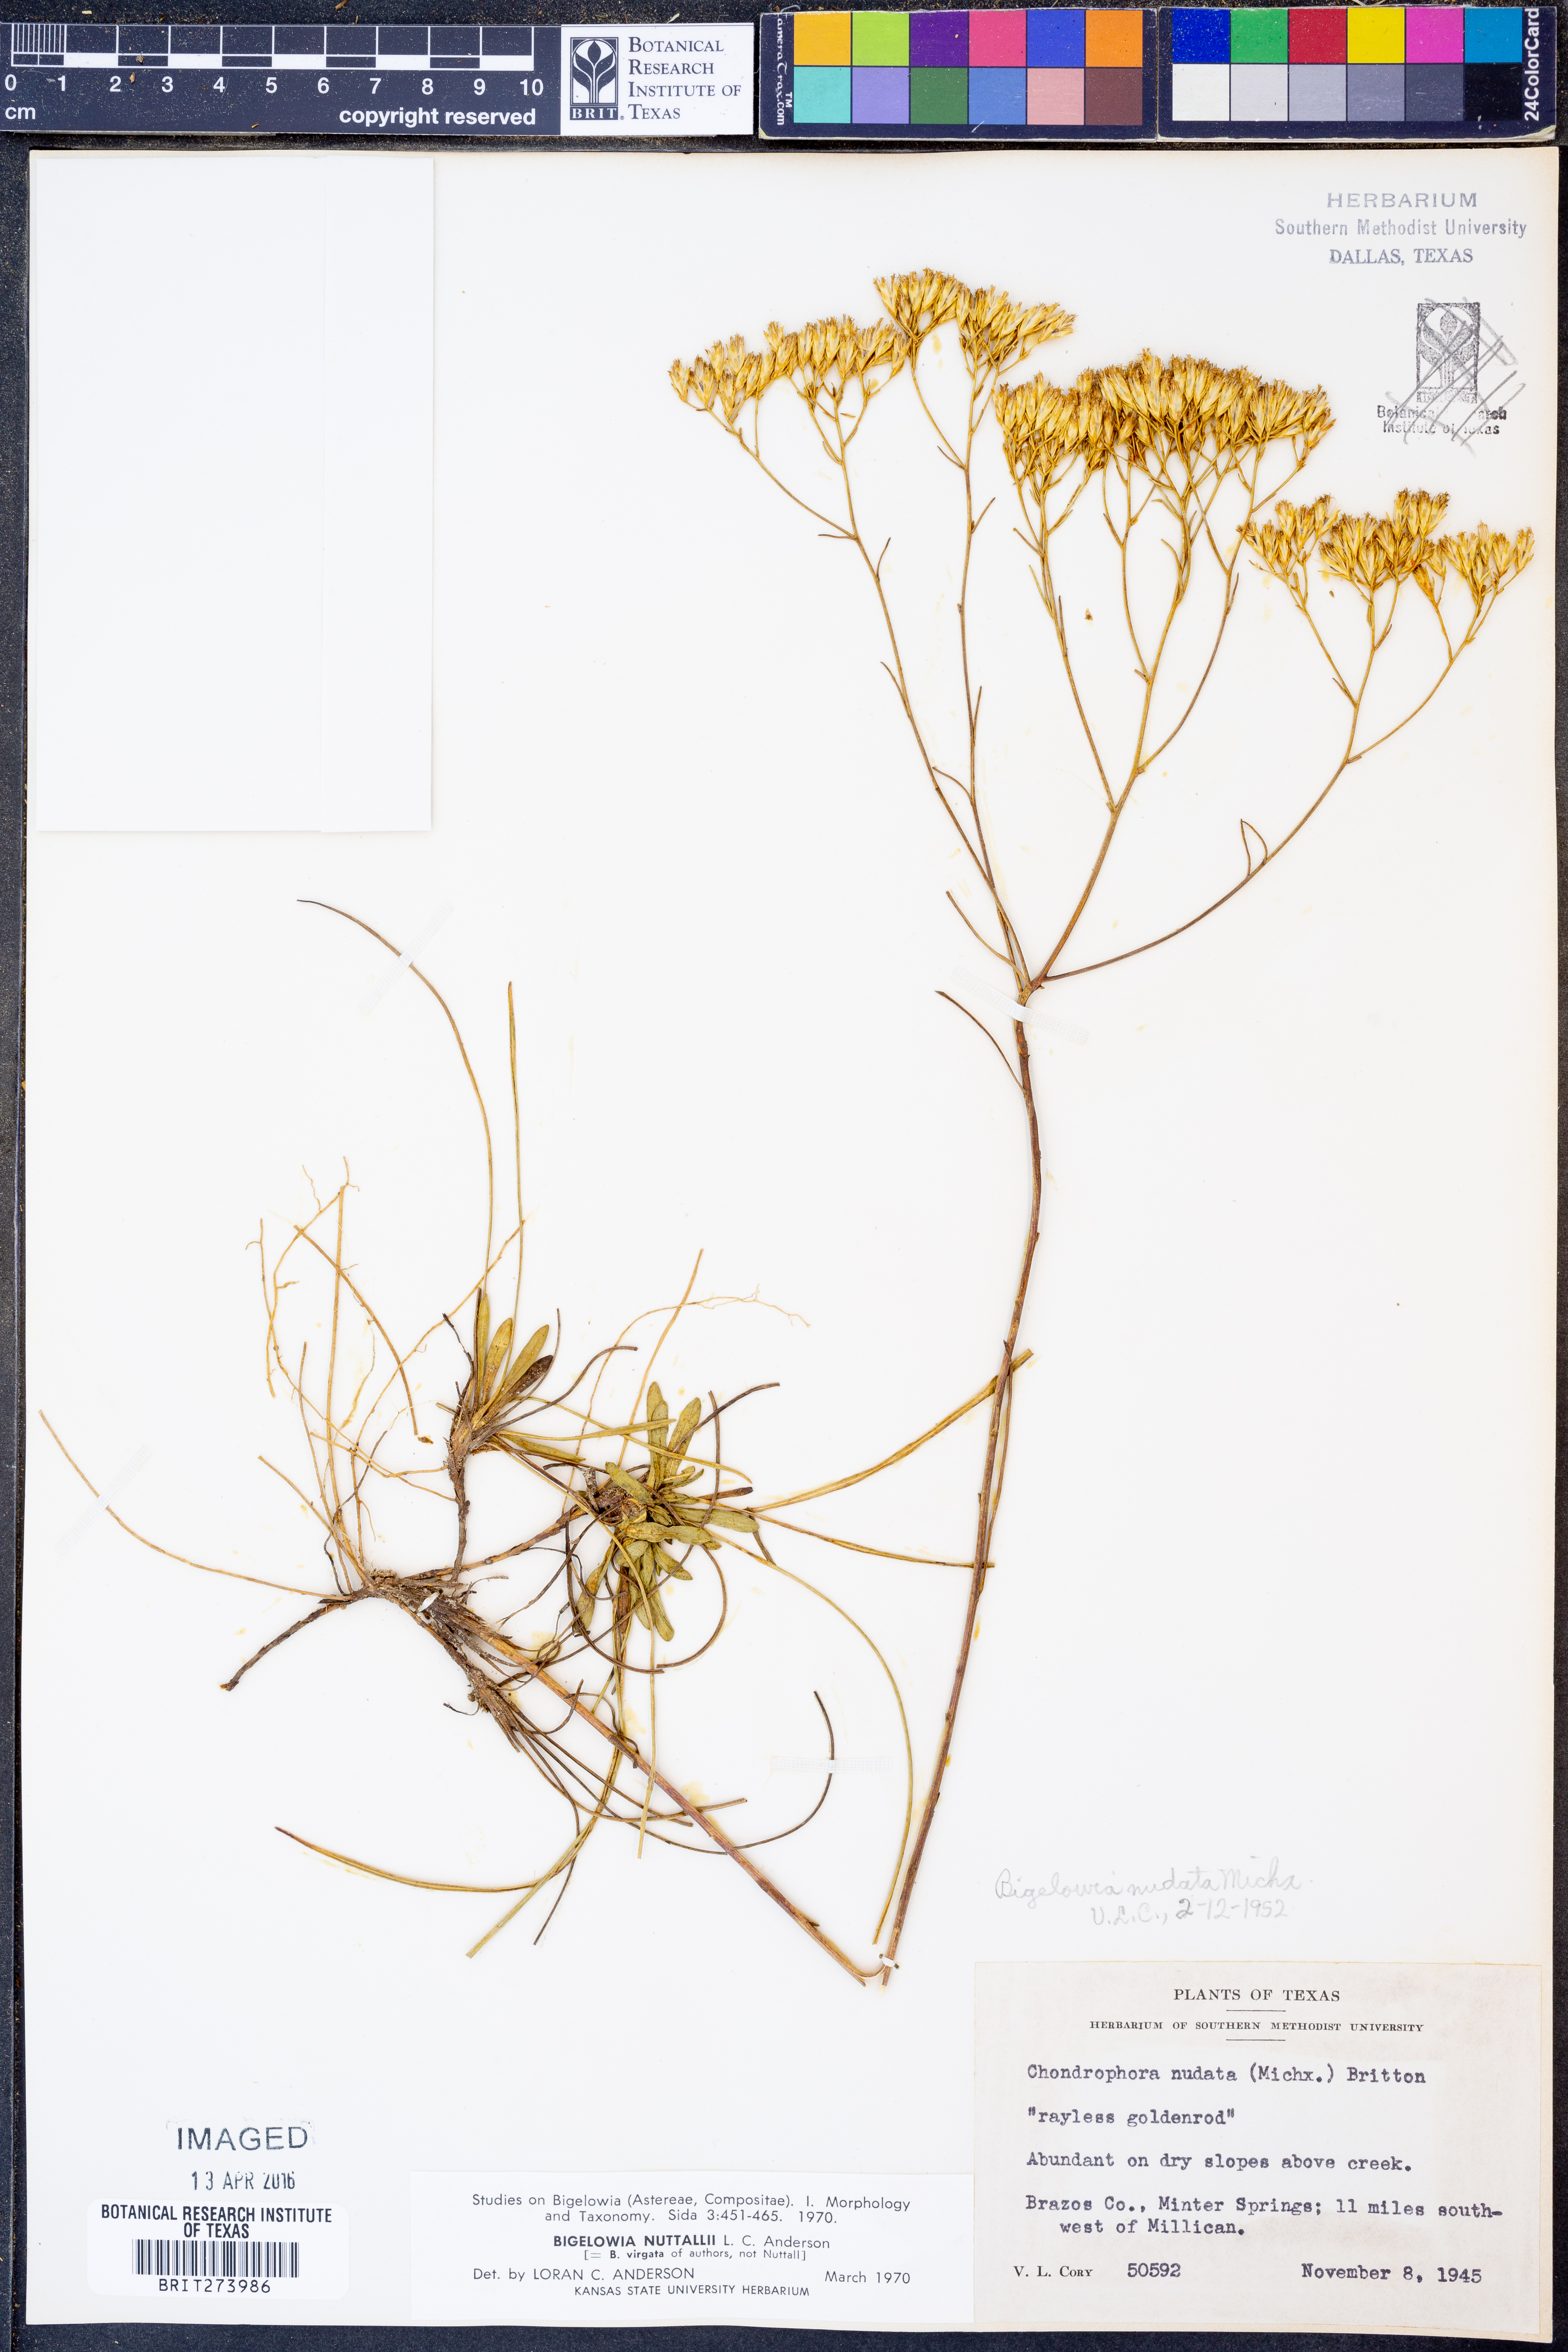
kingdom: Plantae
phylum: Tracheophyta
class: Magnoliopsida
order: Asterales
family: Asteraceae
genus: Bigelowia
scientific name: Bigelowia nuttallii
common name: Nuttall's rayless-goldenrod
